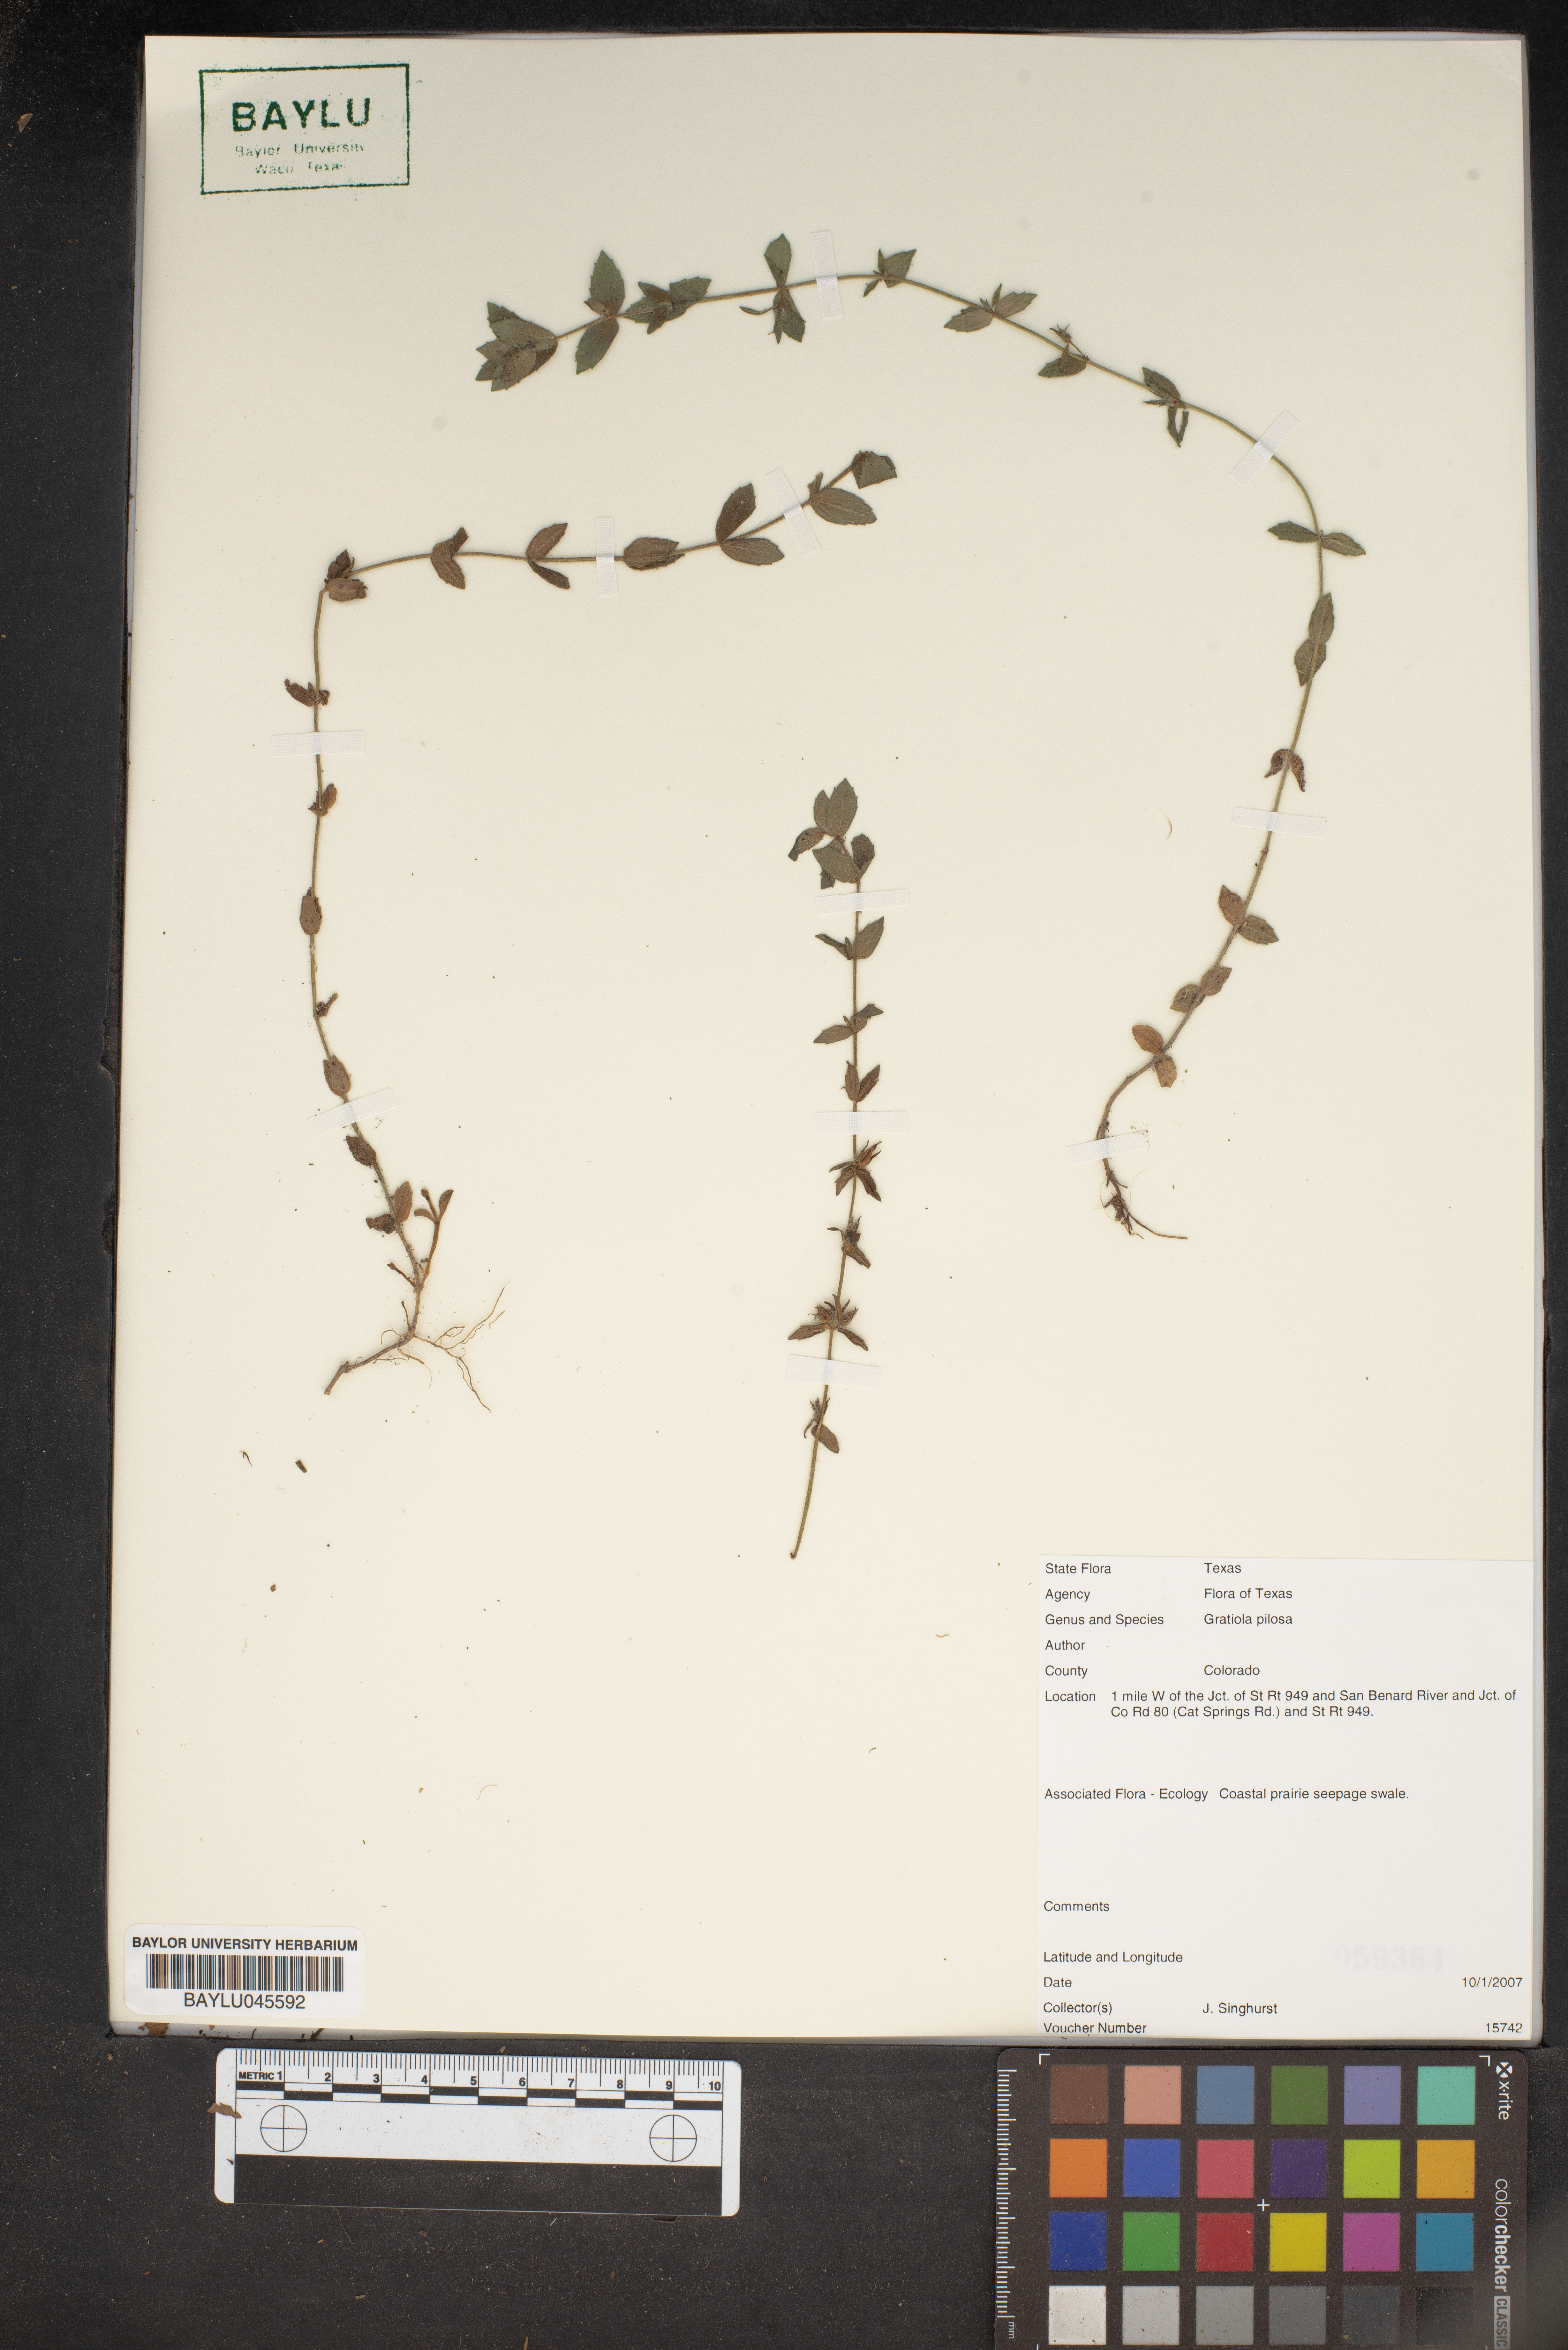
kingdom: Plantae
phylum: Tracheophyta
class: Magnoliopsida
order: Lamiales
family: Plantaginaceae
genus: Gratiola
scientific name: Gratiola pilosa
